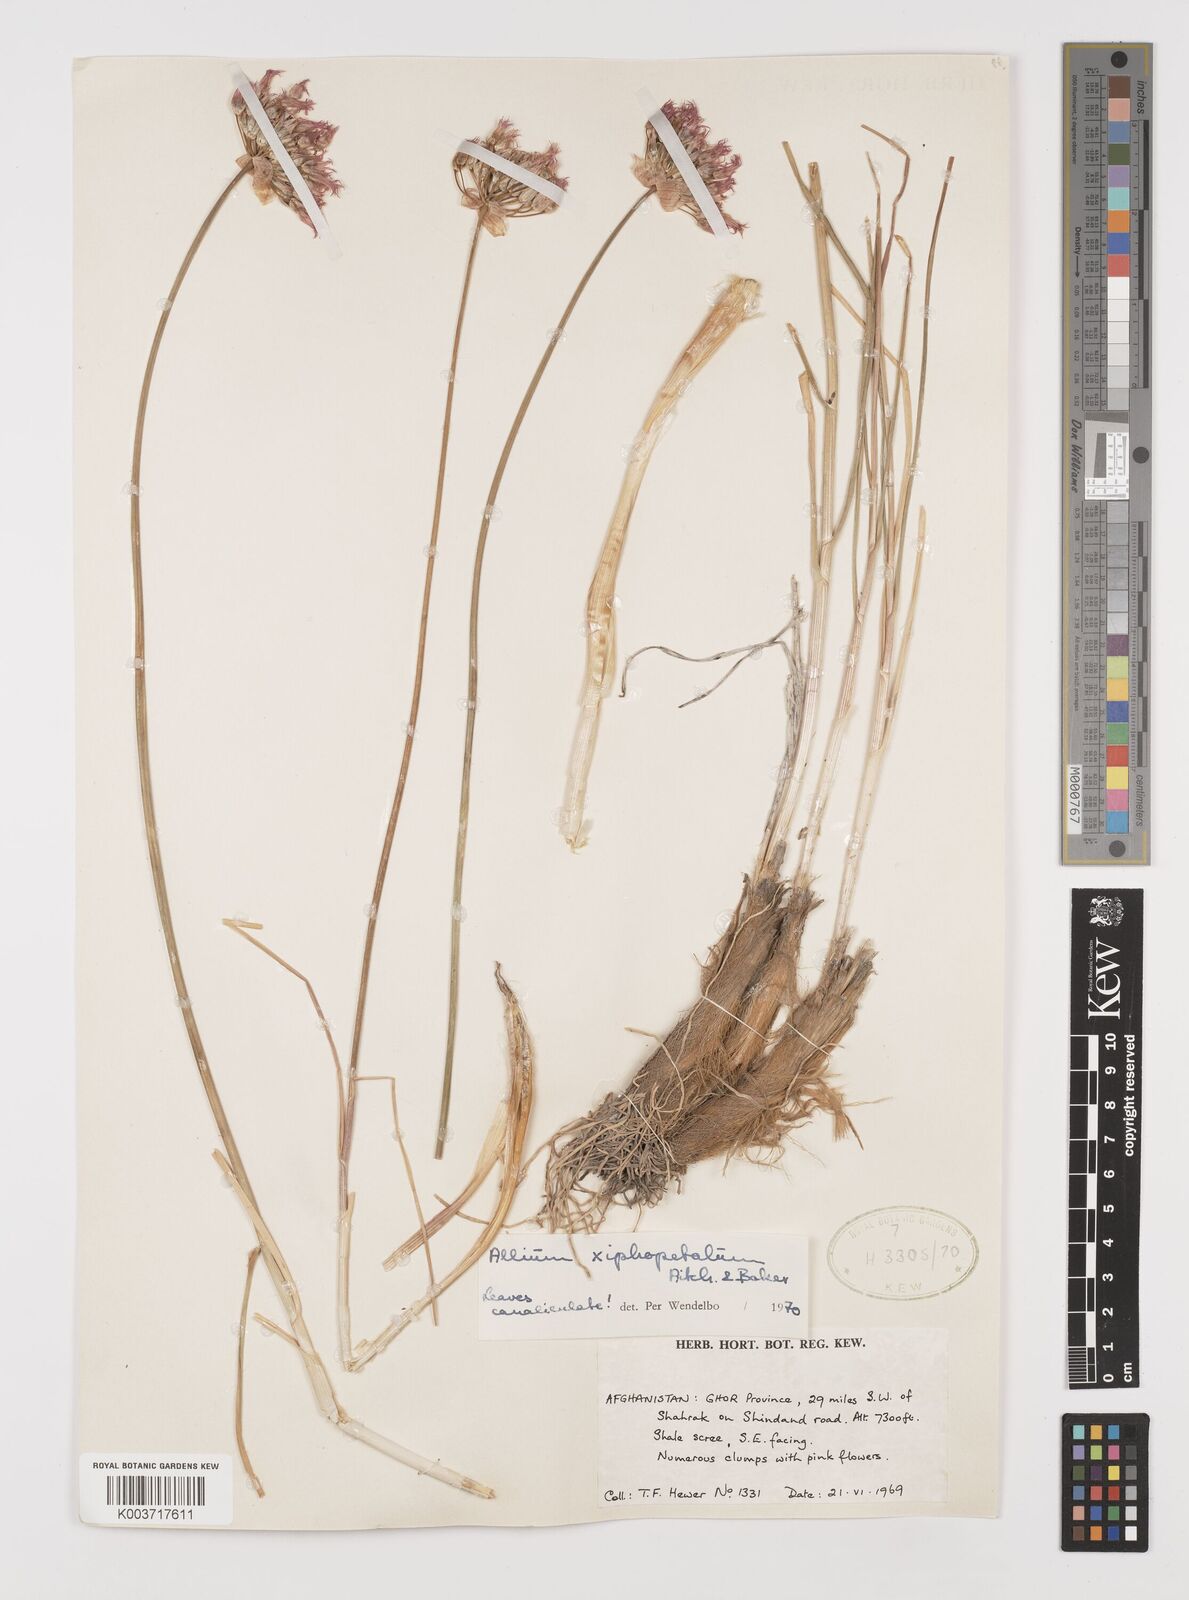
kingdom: Plantae
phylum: Tracheophyta
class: Liliopsida
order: Asparagales
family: Amaryllidaceae
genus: Allium
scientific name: Allium xiphopetalum
